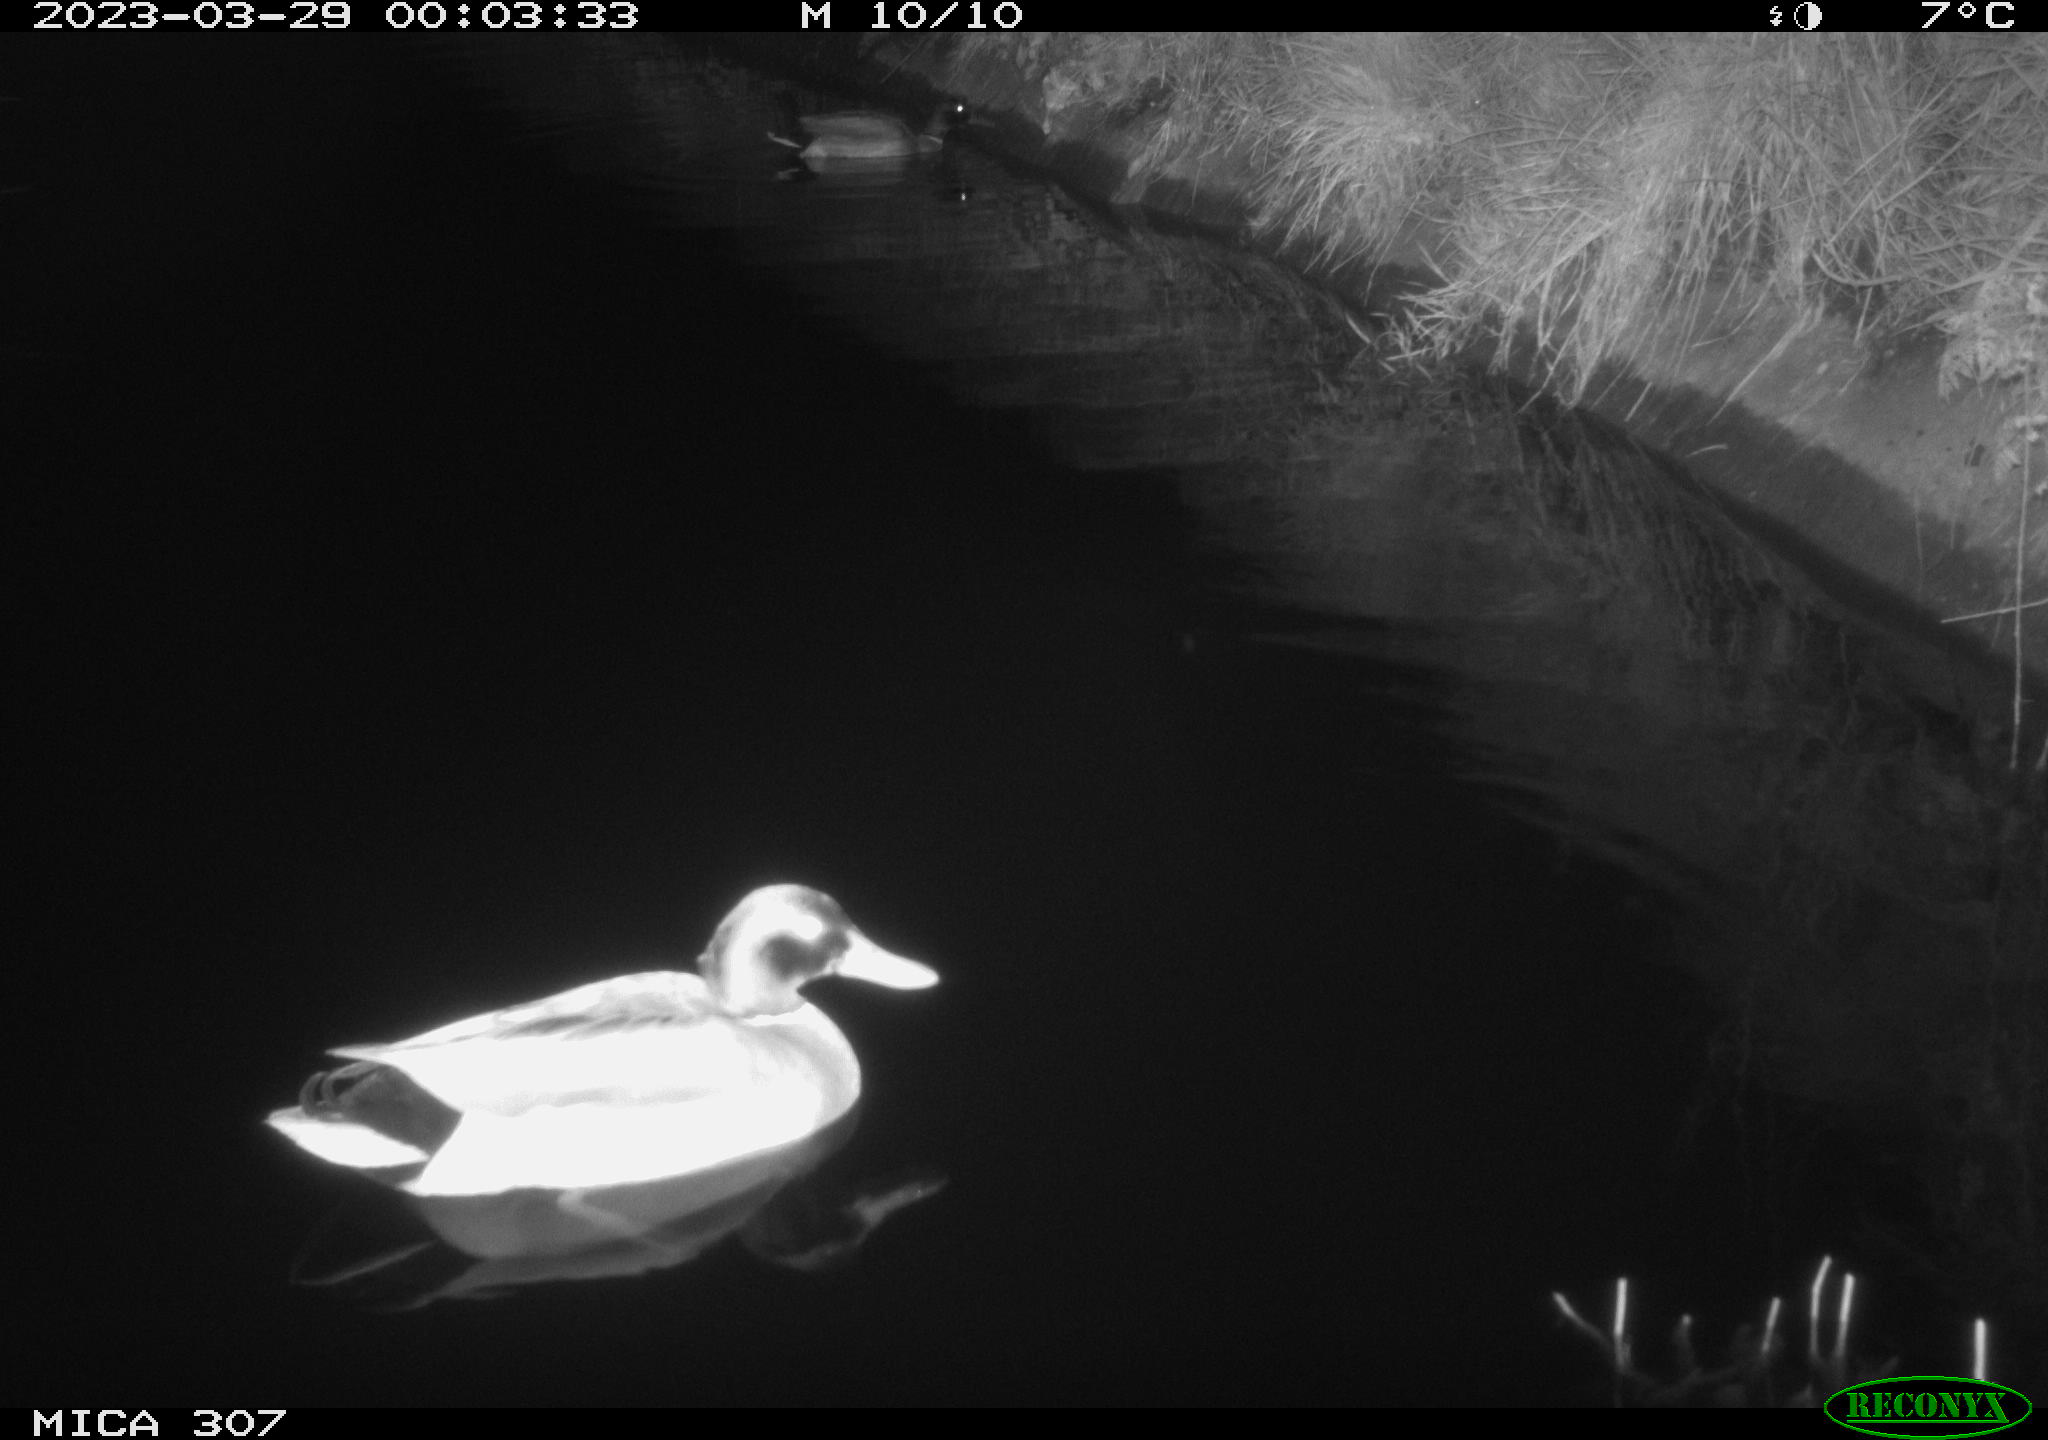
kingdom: Animalia
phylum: Chordata
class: Aves
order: Anseriformes
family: Anatidae
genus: Anas
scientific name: Anas
